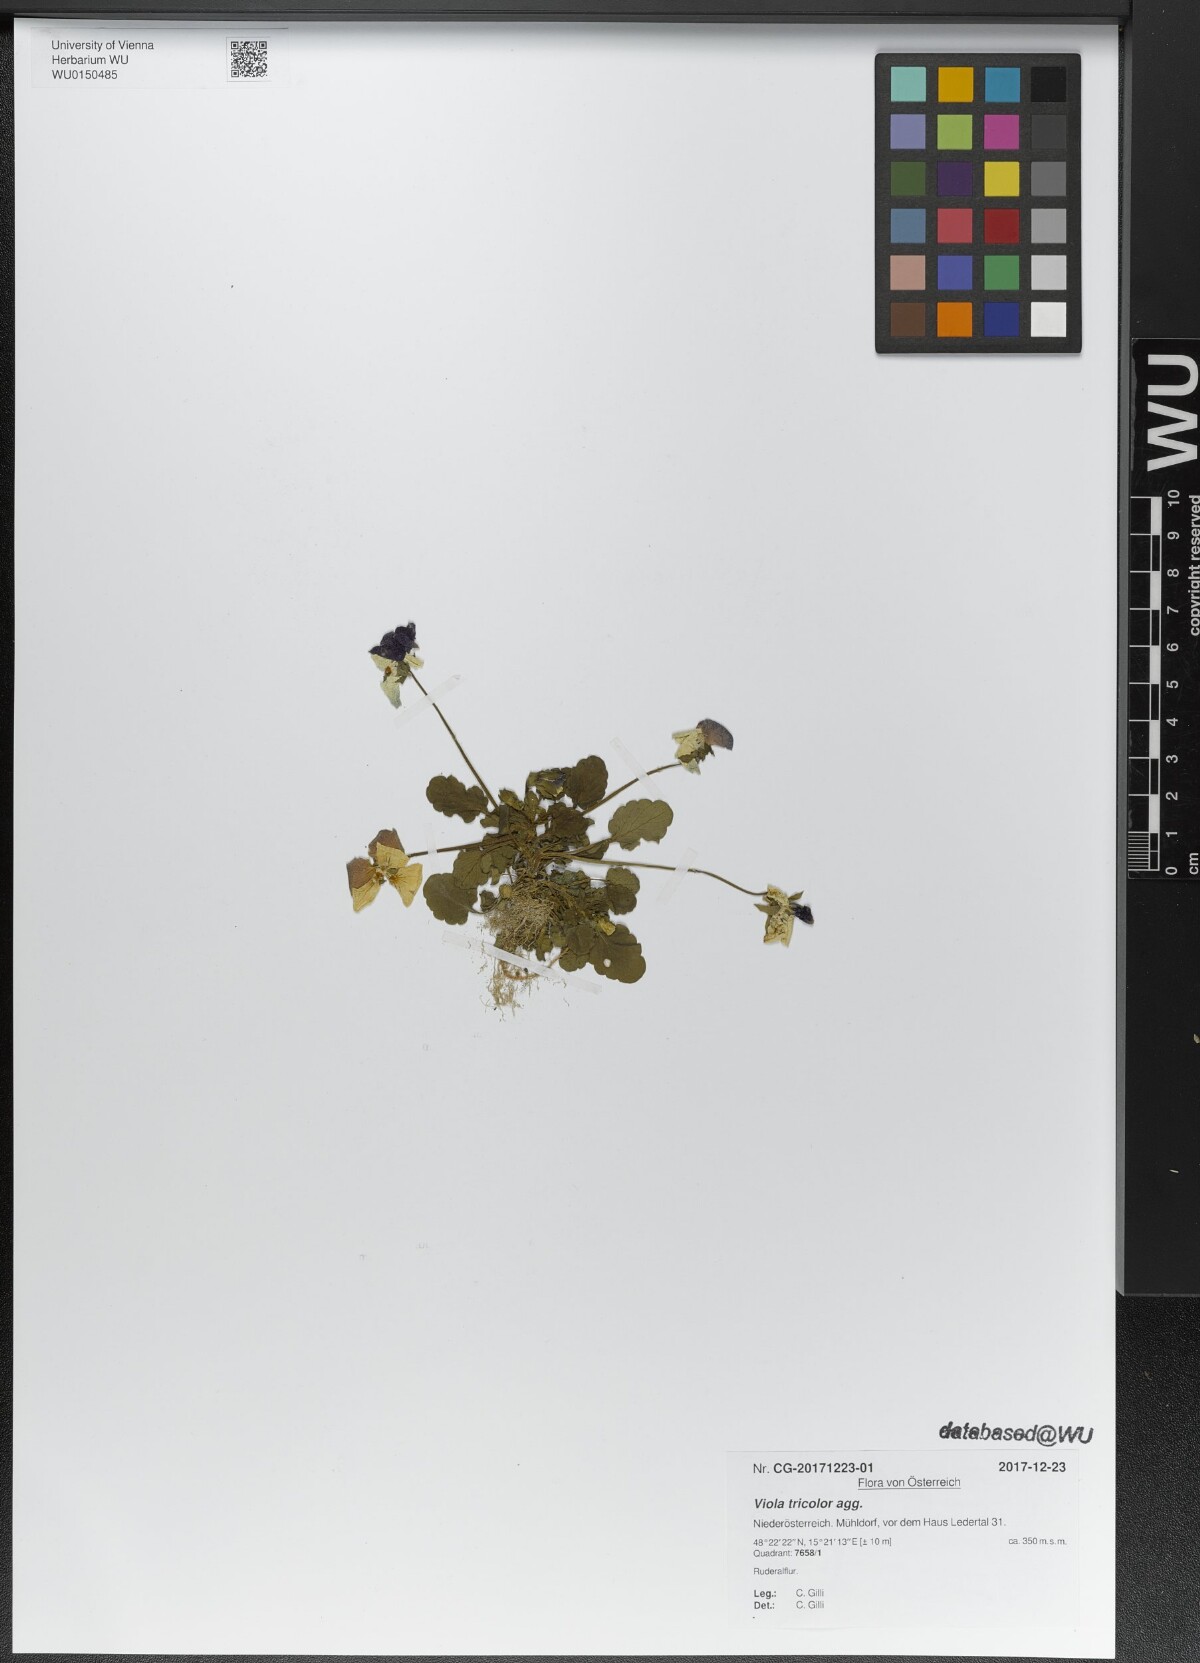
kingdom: Plantae
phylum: Tracheophyta
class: Magnoliopsida
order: Malpighiales
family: Violaceae
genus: Viola
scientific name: Viola tricolor
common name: Pansy
